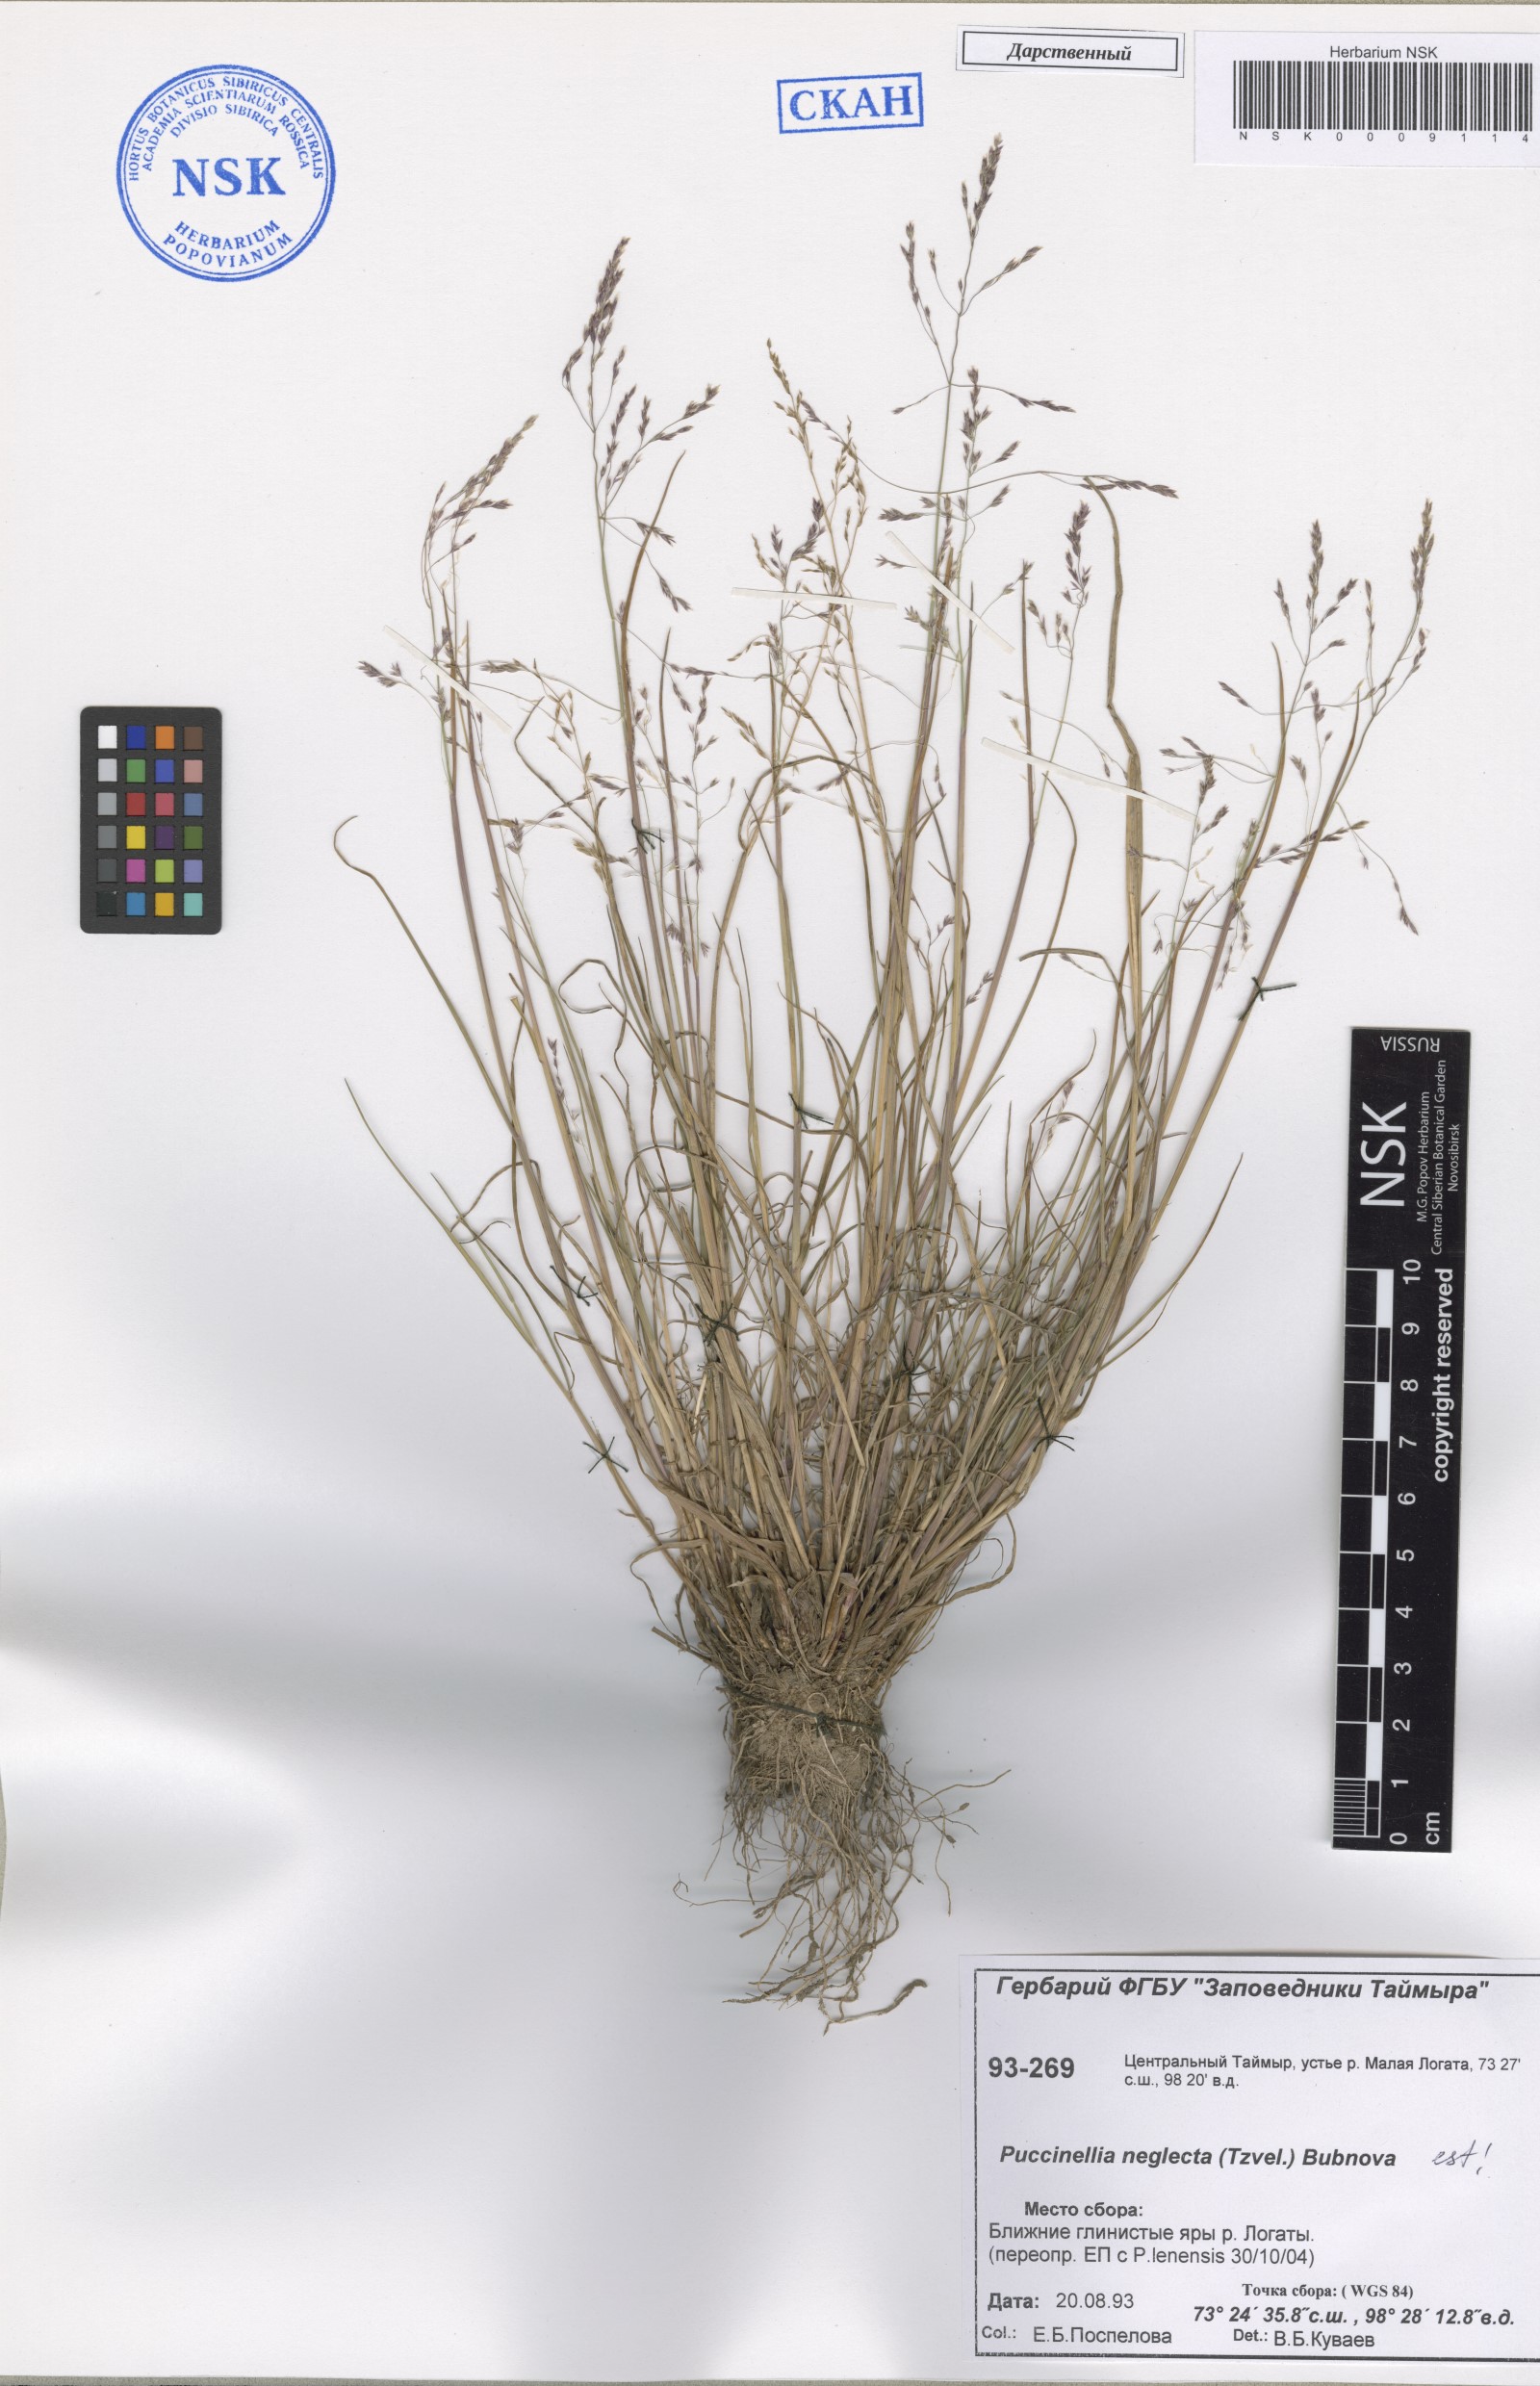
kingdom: Plantae
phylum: Tracheophyta
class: Liliopsida
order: Poales
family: Poaceae
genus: Puccinellia
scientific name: Puccinellia nuttalliana
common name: Nuttall's alkali grass
